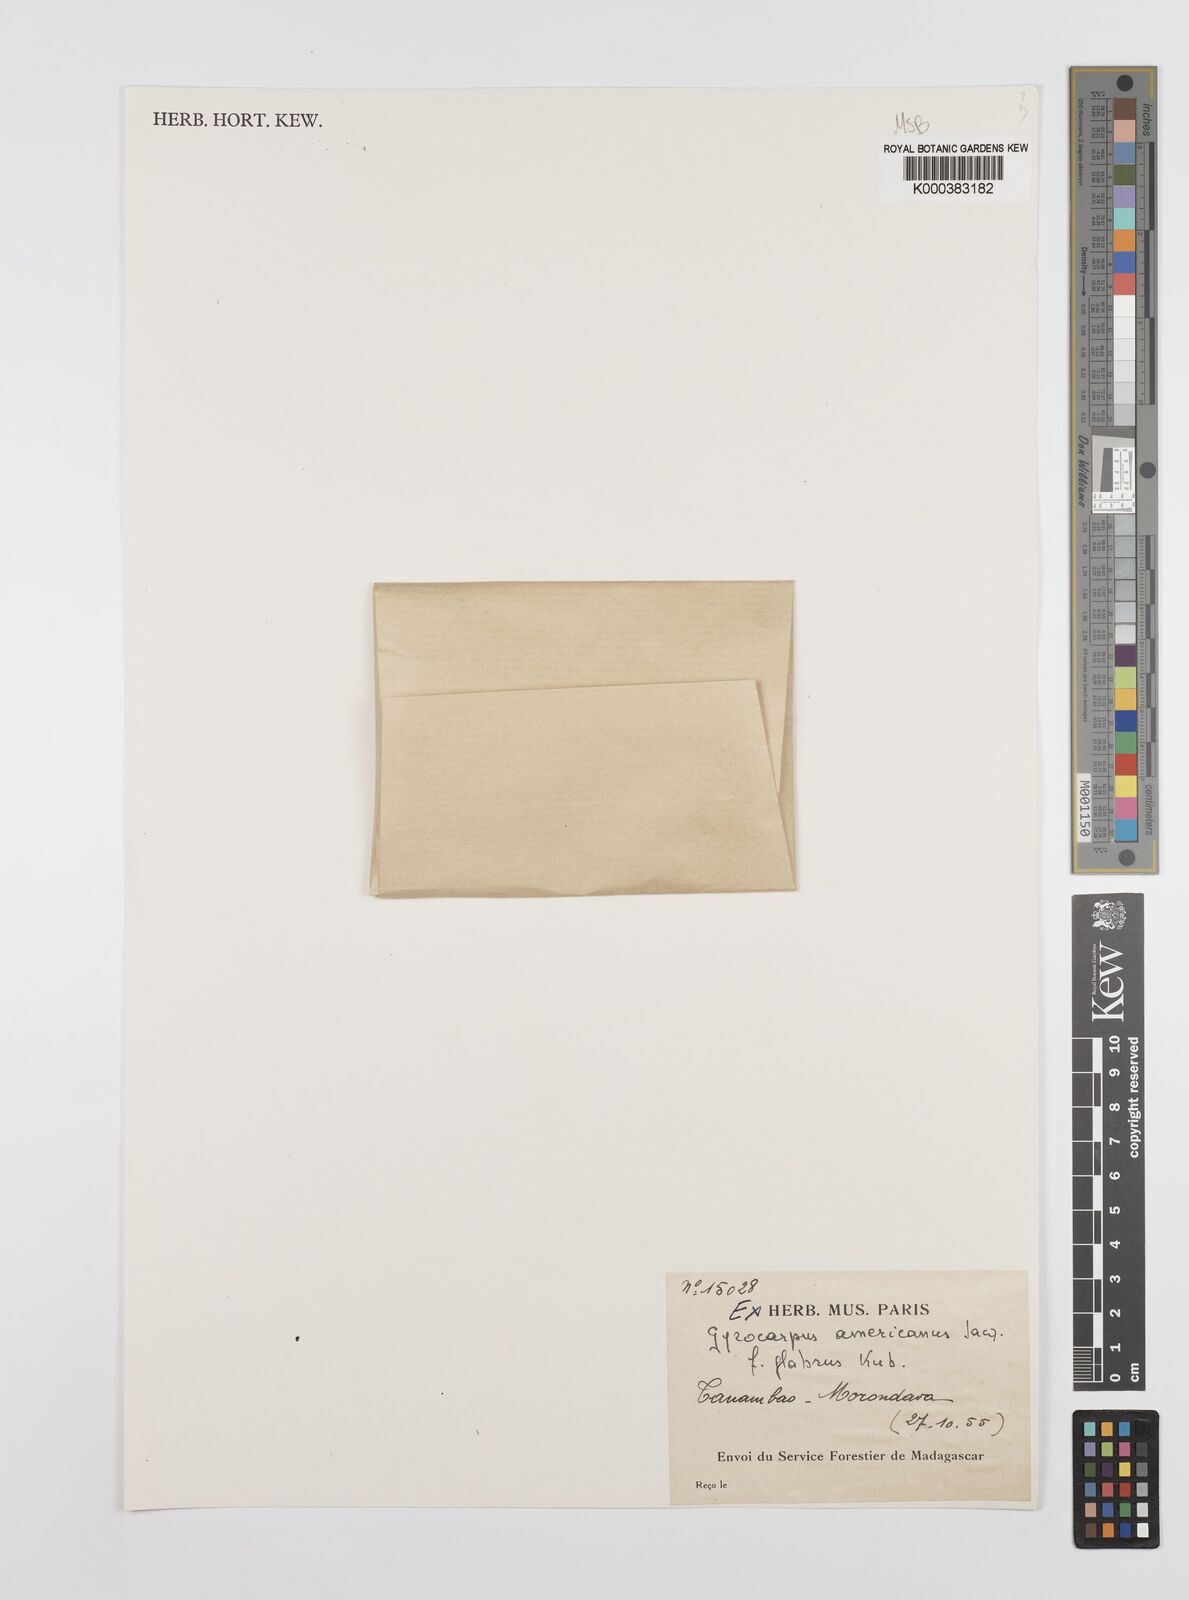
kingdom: Plantae
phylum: Tracheophyta
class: Magnoliopsida
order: Laurales
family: Hernandiaceae
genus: Gyrocarpus
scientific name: Gyrocarpus americanus
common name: Gyro damson
